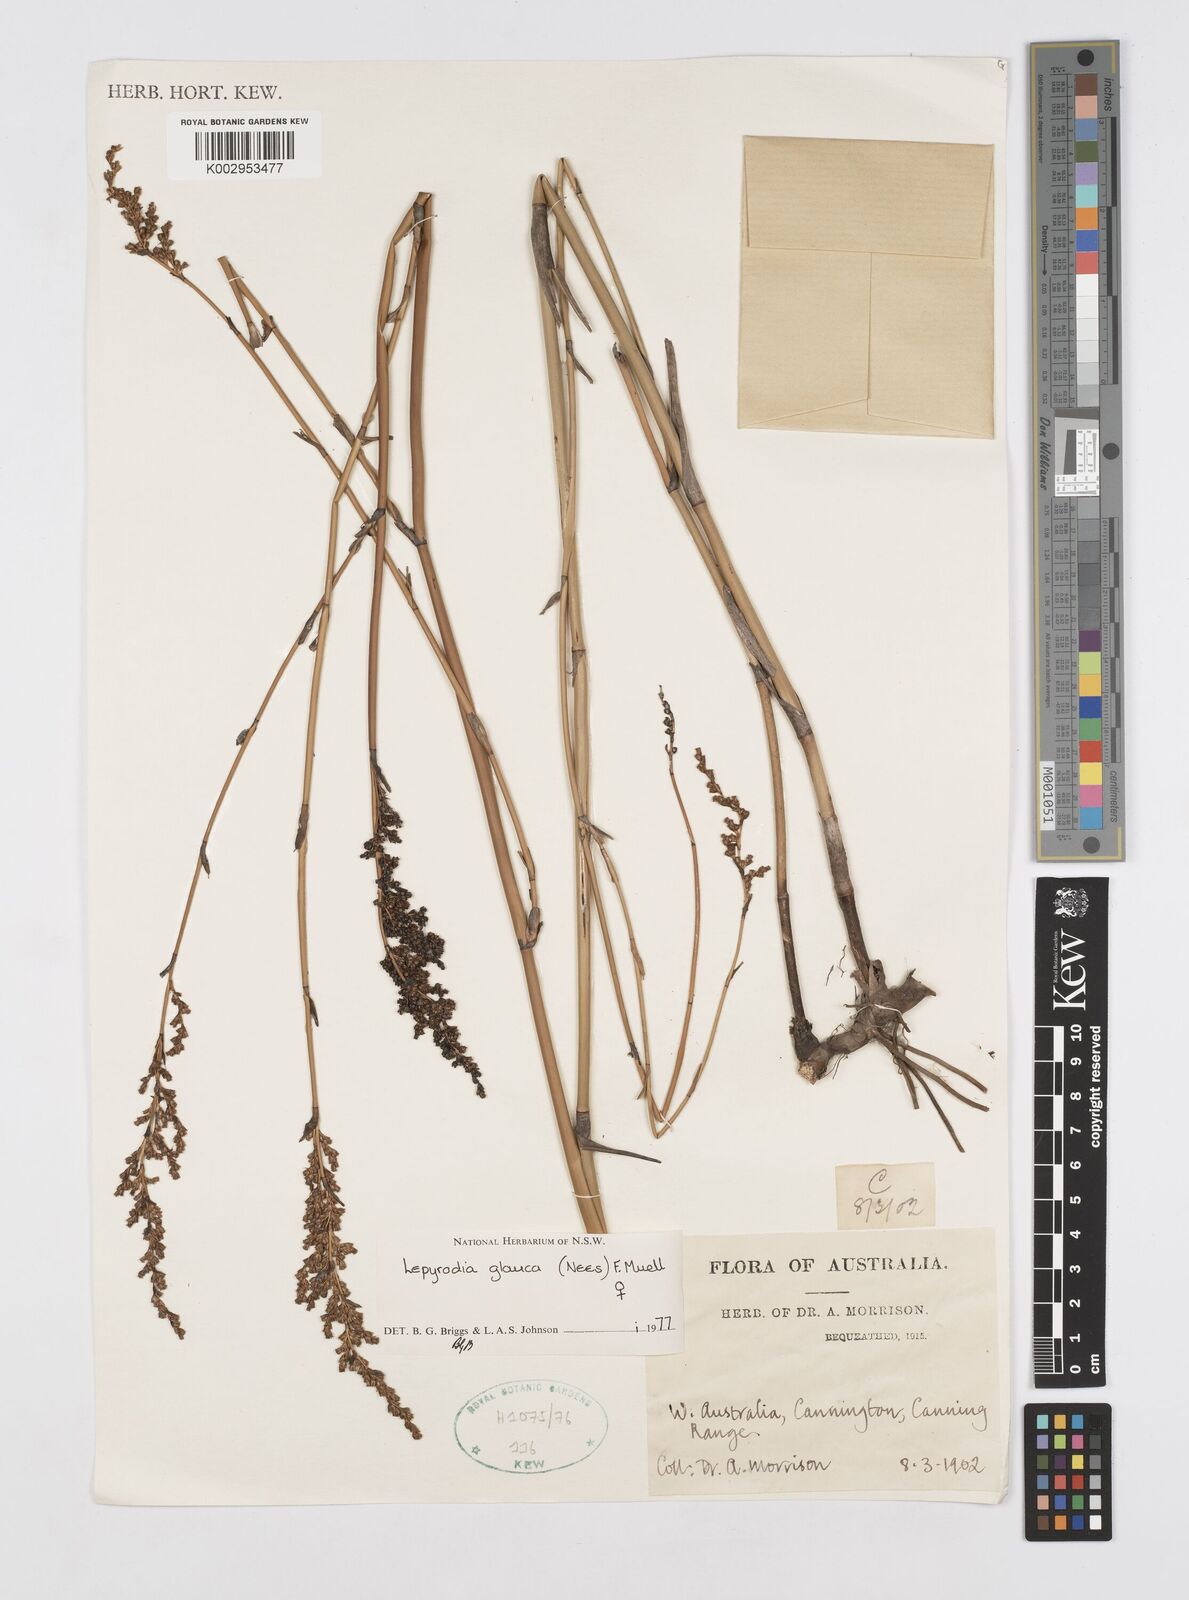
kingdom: Plantae
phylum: Tracheophyta
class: Liliopsida
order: Poales
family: Restionaceae
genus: Lepyrodia
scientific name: Lepyrodia glauca
